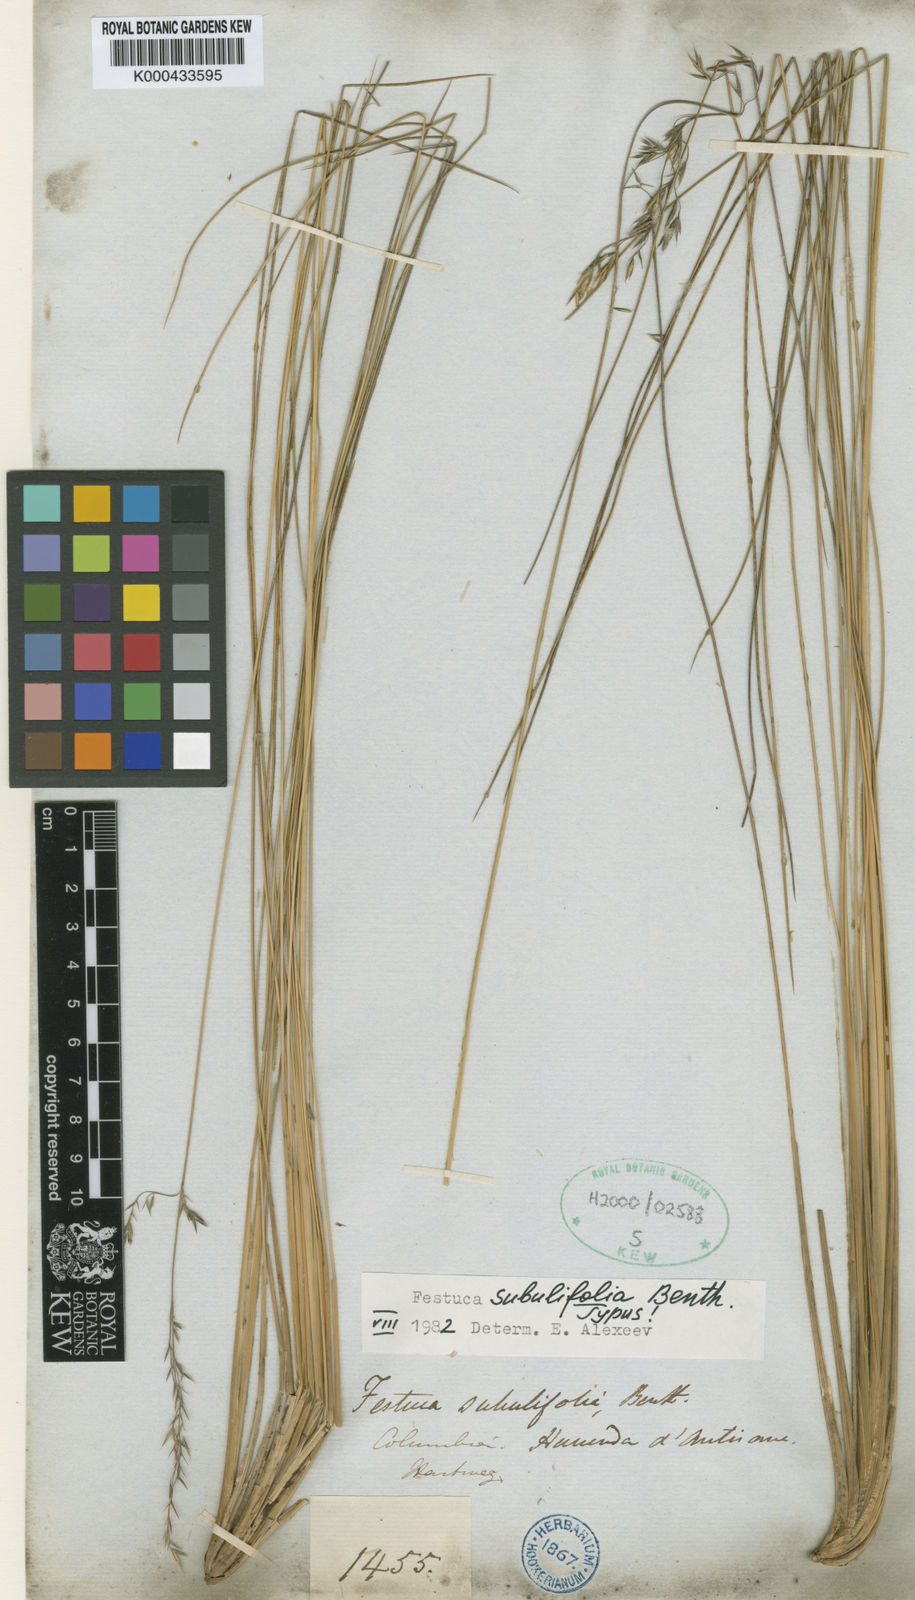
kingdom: Plantae
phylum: Tracheophyta
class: Liliopsida
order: Poales
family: Poaceae
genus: Festuca
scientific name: Festuca subulifolia
